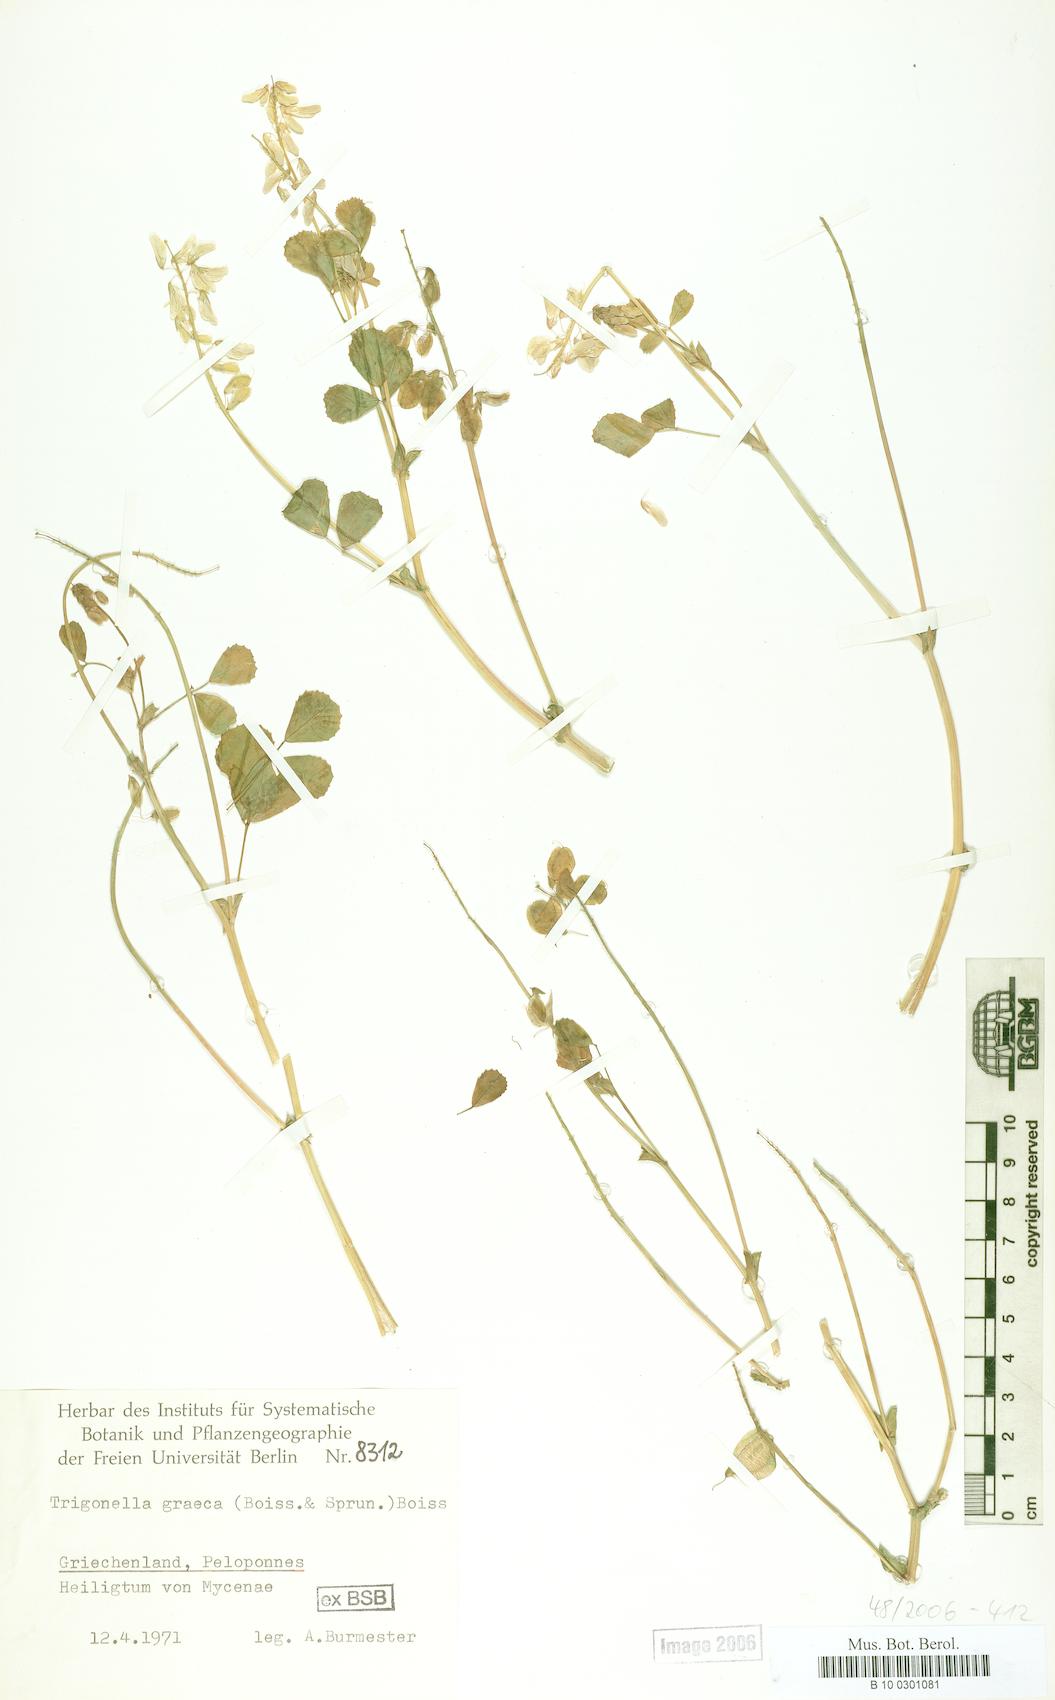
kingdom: Plantae
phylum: Tracheophyta
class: Magnoliopsida
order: Fabales
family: Fabaceae
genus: Trigonella
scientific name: Trigonella graeca
